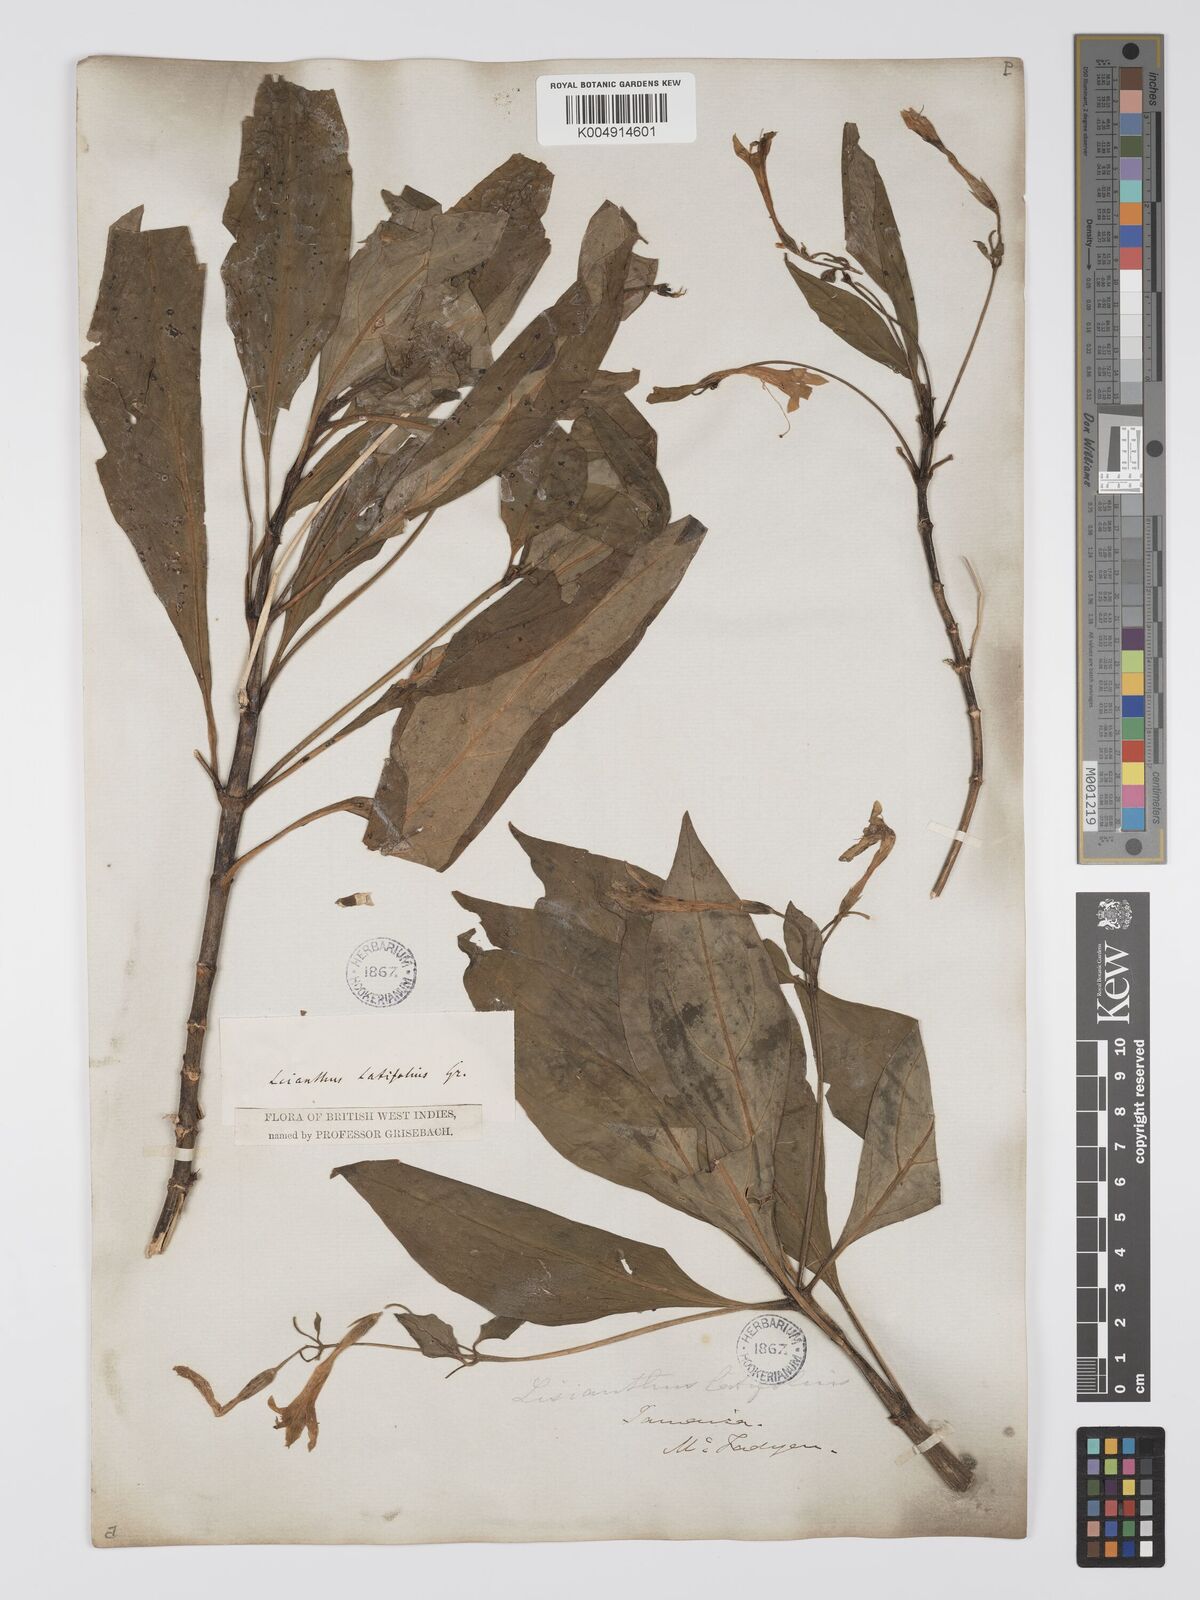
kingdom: Plantae
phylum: Tracheophyta
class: Magnoliopsida
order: Gentianales
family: Gentianaceae
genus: Lisianthus
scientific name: Lisianthus latifolius
